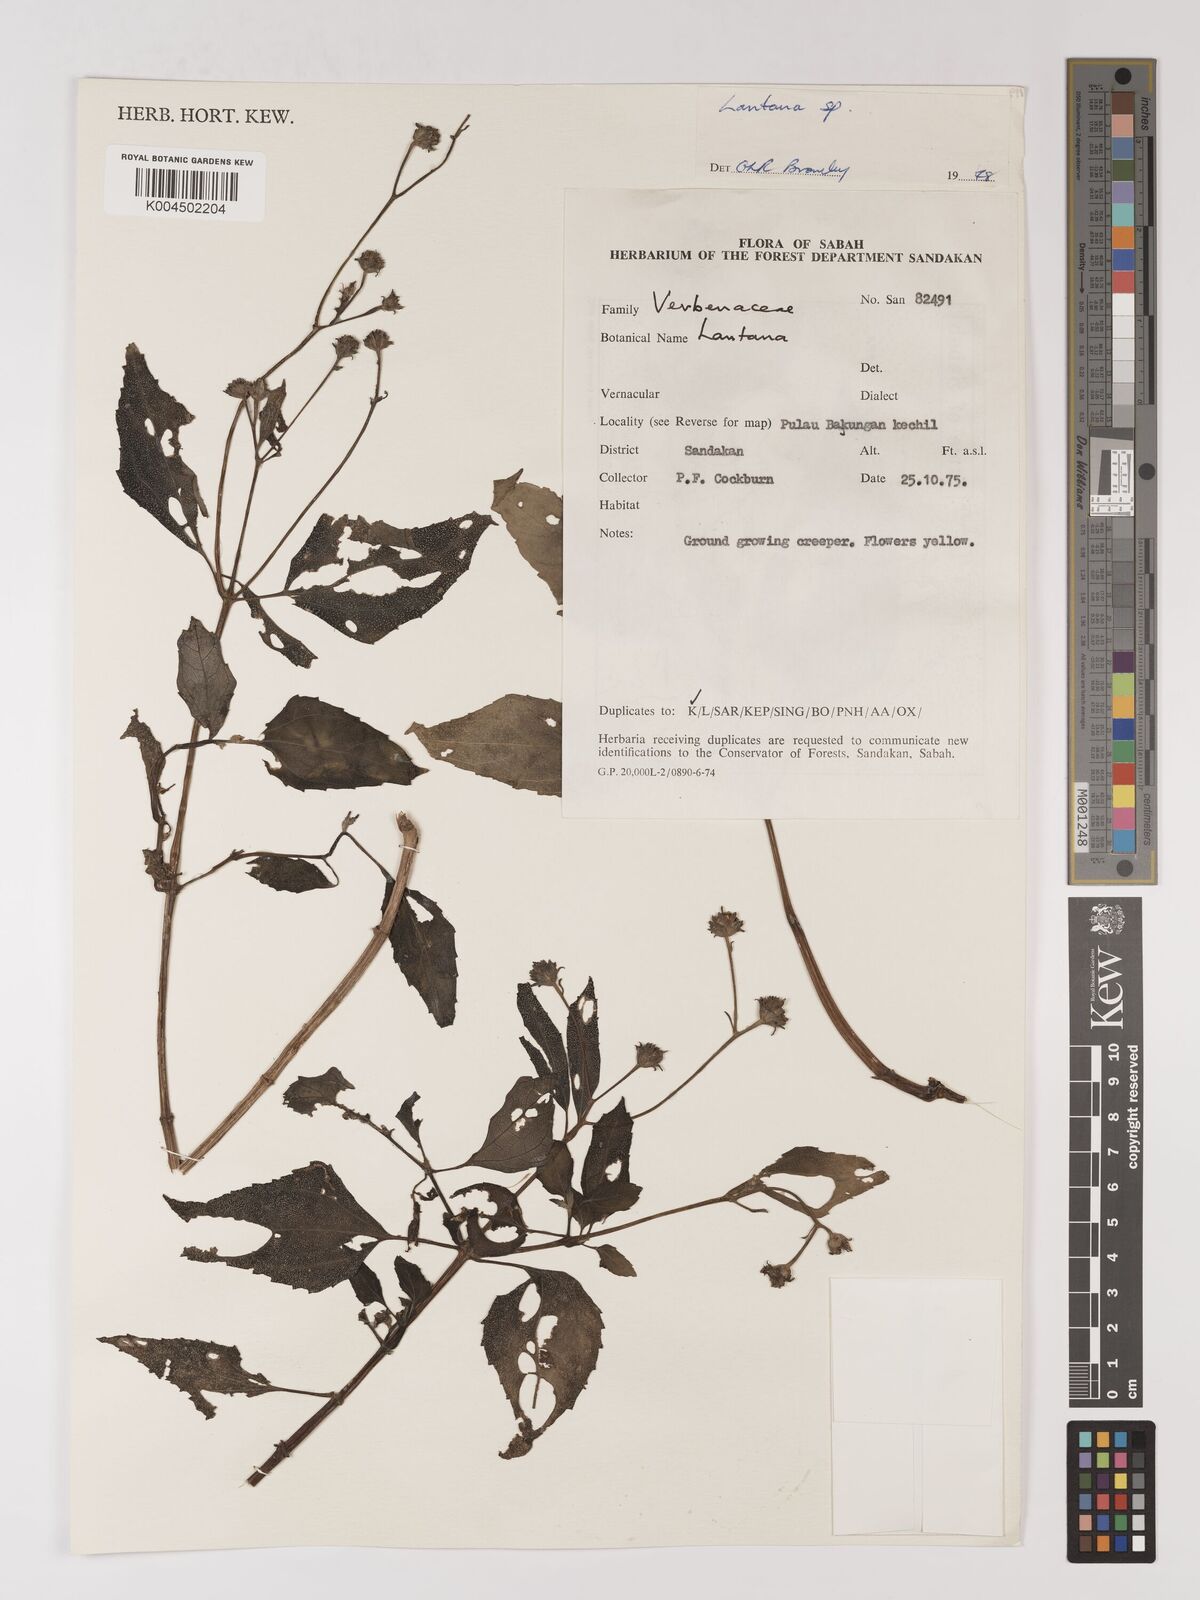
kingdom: Plantae
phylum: Tracheophyta
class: Magnoliopsida
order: Lamiales
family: Verbenaceae
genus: Lantana
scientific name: Lantana
